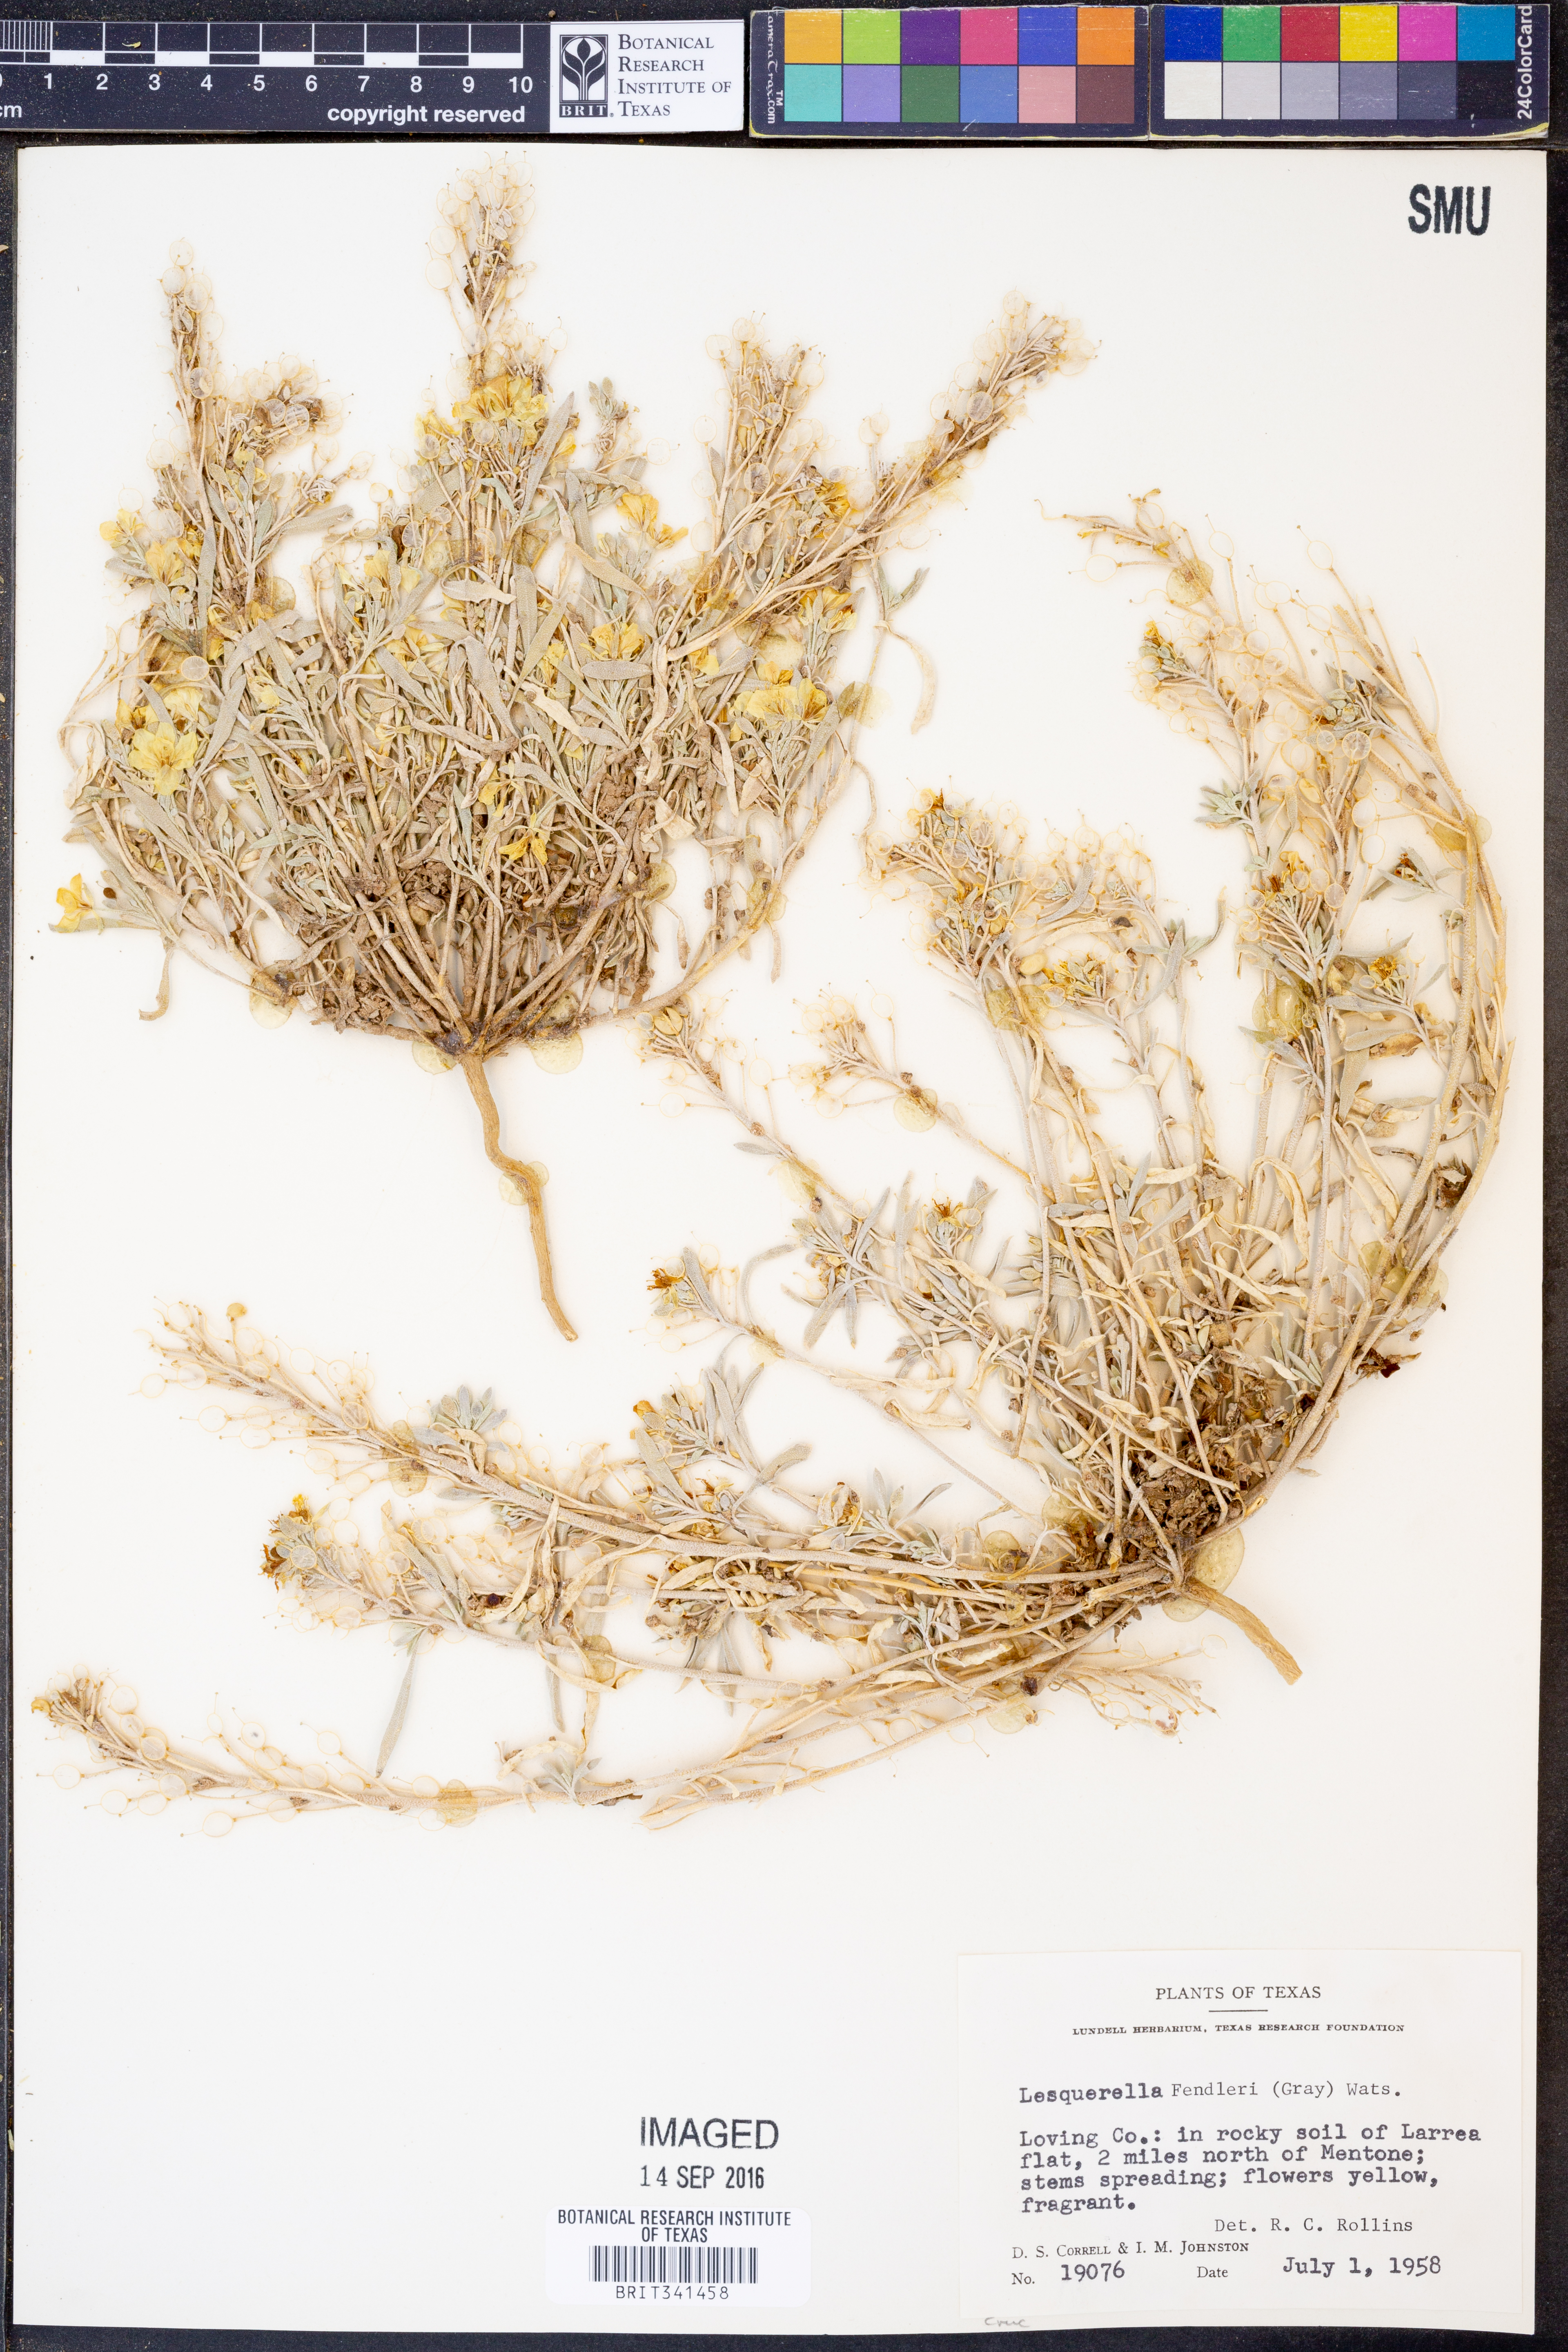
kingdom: Plantae
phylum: Tracheophyta
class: Magnoliopsida
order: Brassicales
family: Brassicaceae
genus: Physaria
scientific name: Physaria fendleri
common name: Fendler's bladderpod
